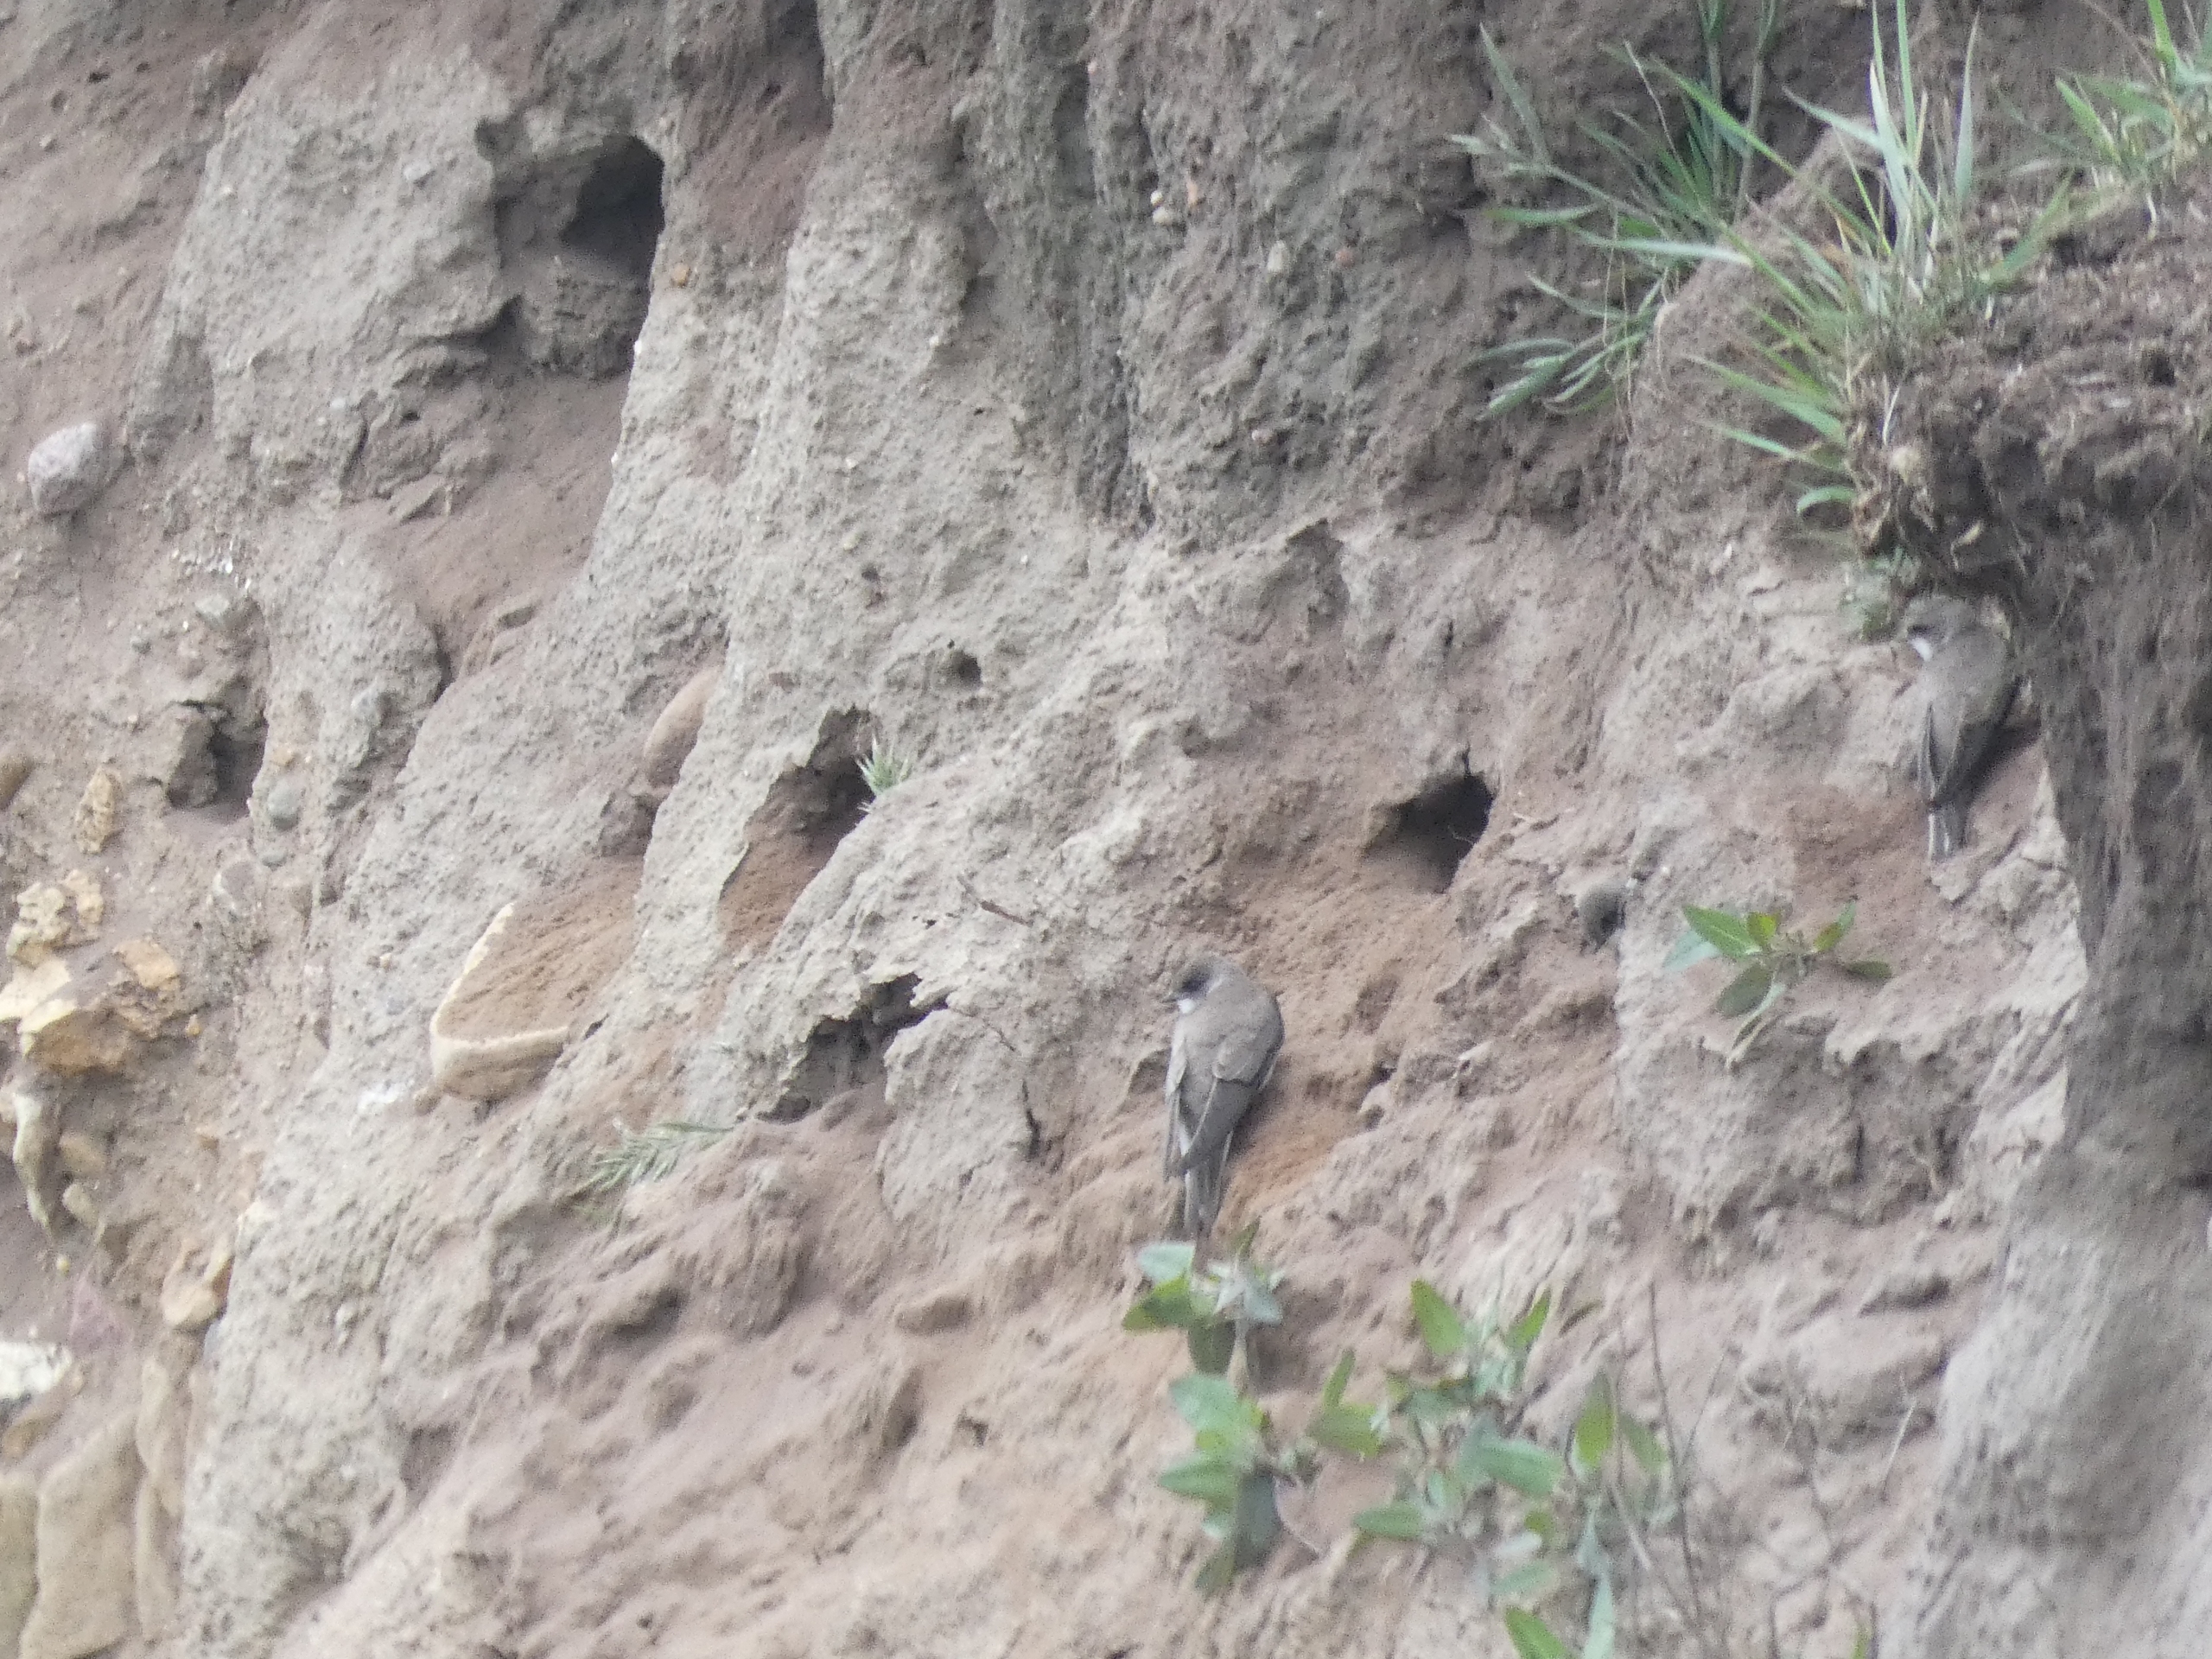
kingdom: Animalia
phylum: Chordata
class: Aves
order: Passeriformes
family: Hirundinidae
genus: Riparia
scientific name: Riparia riparia
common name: Digesvale
